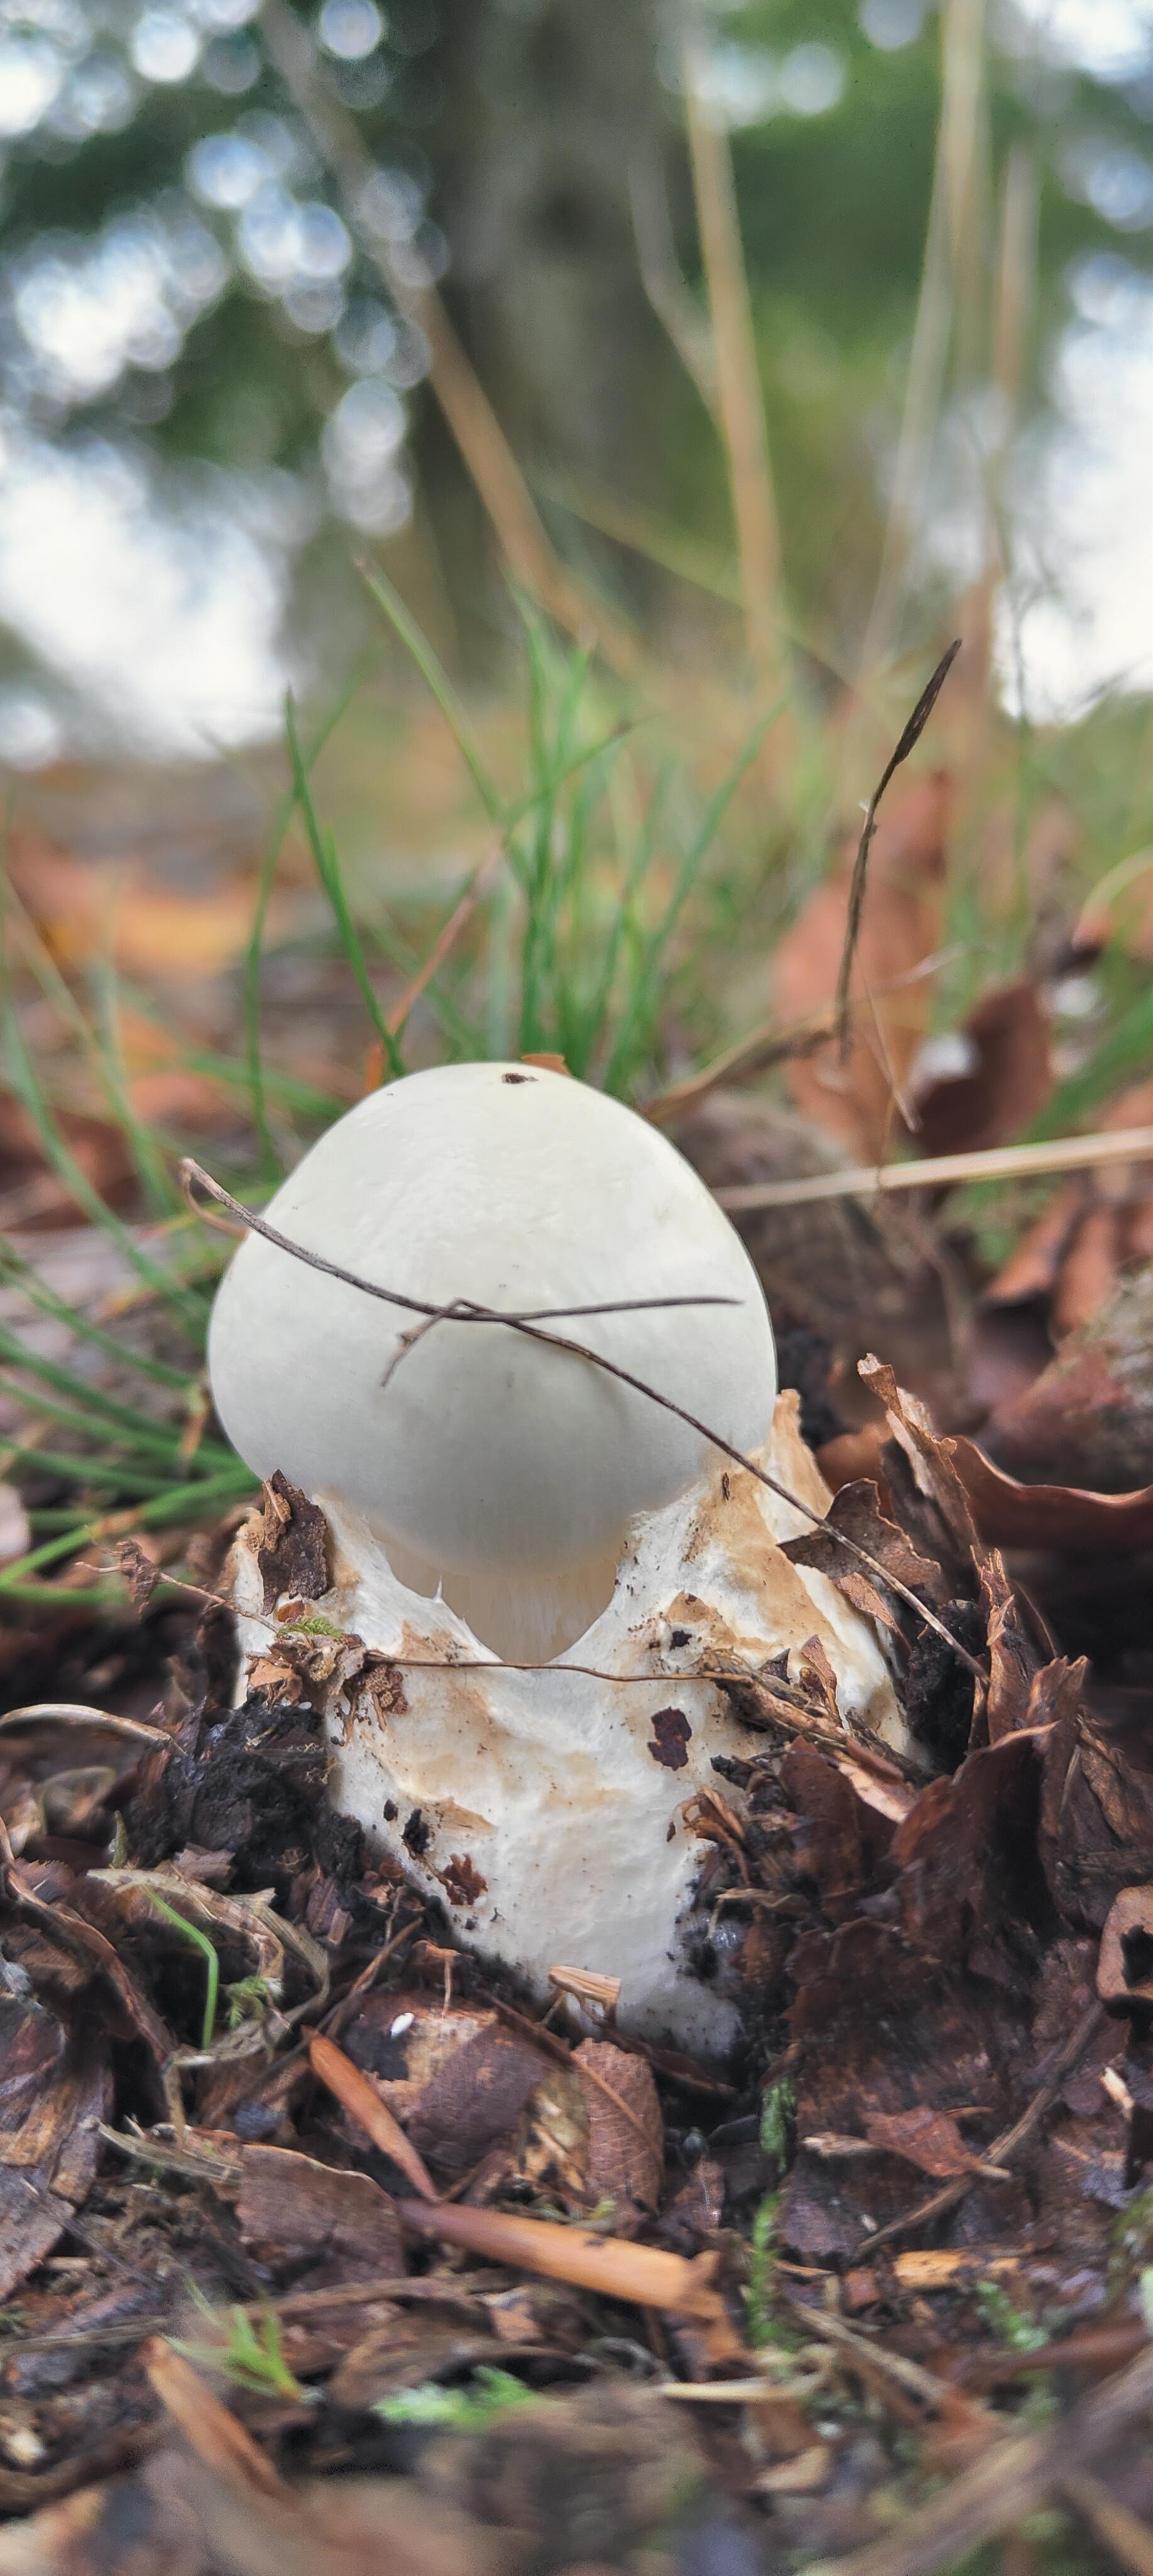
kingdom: Fungi
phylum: Basidiomycota
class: Agaricomycetes
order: Agaricales
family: Amanitaceae
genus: Amanita
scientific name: Amanita virosa
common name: snehvid fluesvamp
